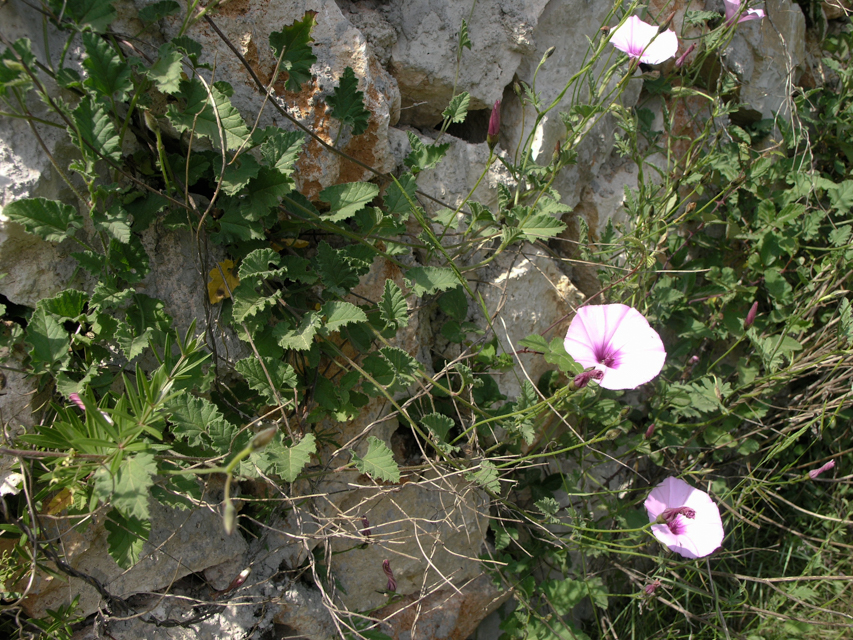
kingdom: Plantae
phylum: Tracheophyta
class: Magnoliopsida
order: Solanales
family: Convolvulaceae
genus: Convolvulus
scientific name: Convolvulus althaeoides
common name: Mallow bindweed
